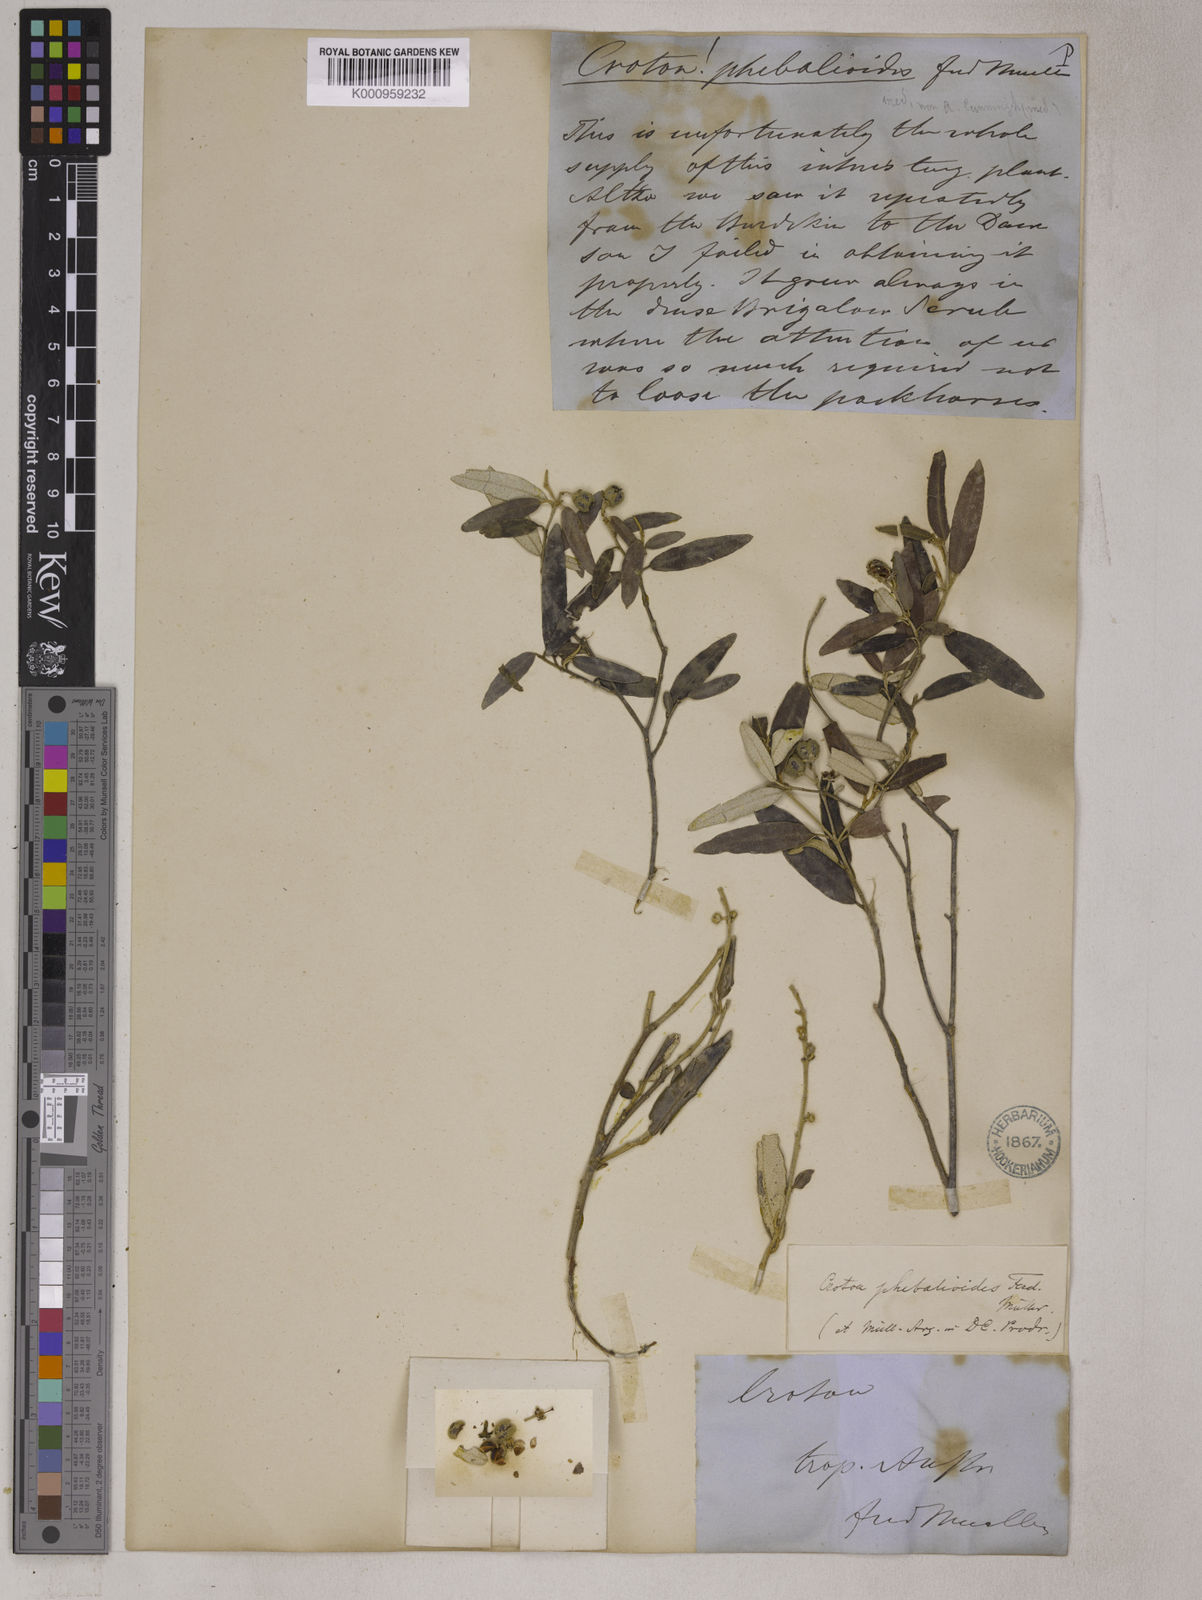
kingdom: Plantae
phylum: Tracheophyta
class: Magnoliopsida
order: Malpighiales
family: Euphorbiaceae
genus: Croton
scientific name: Croton
